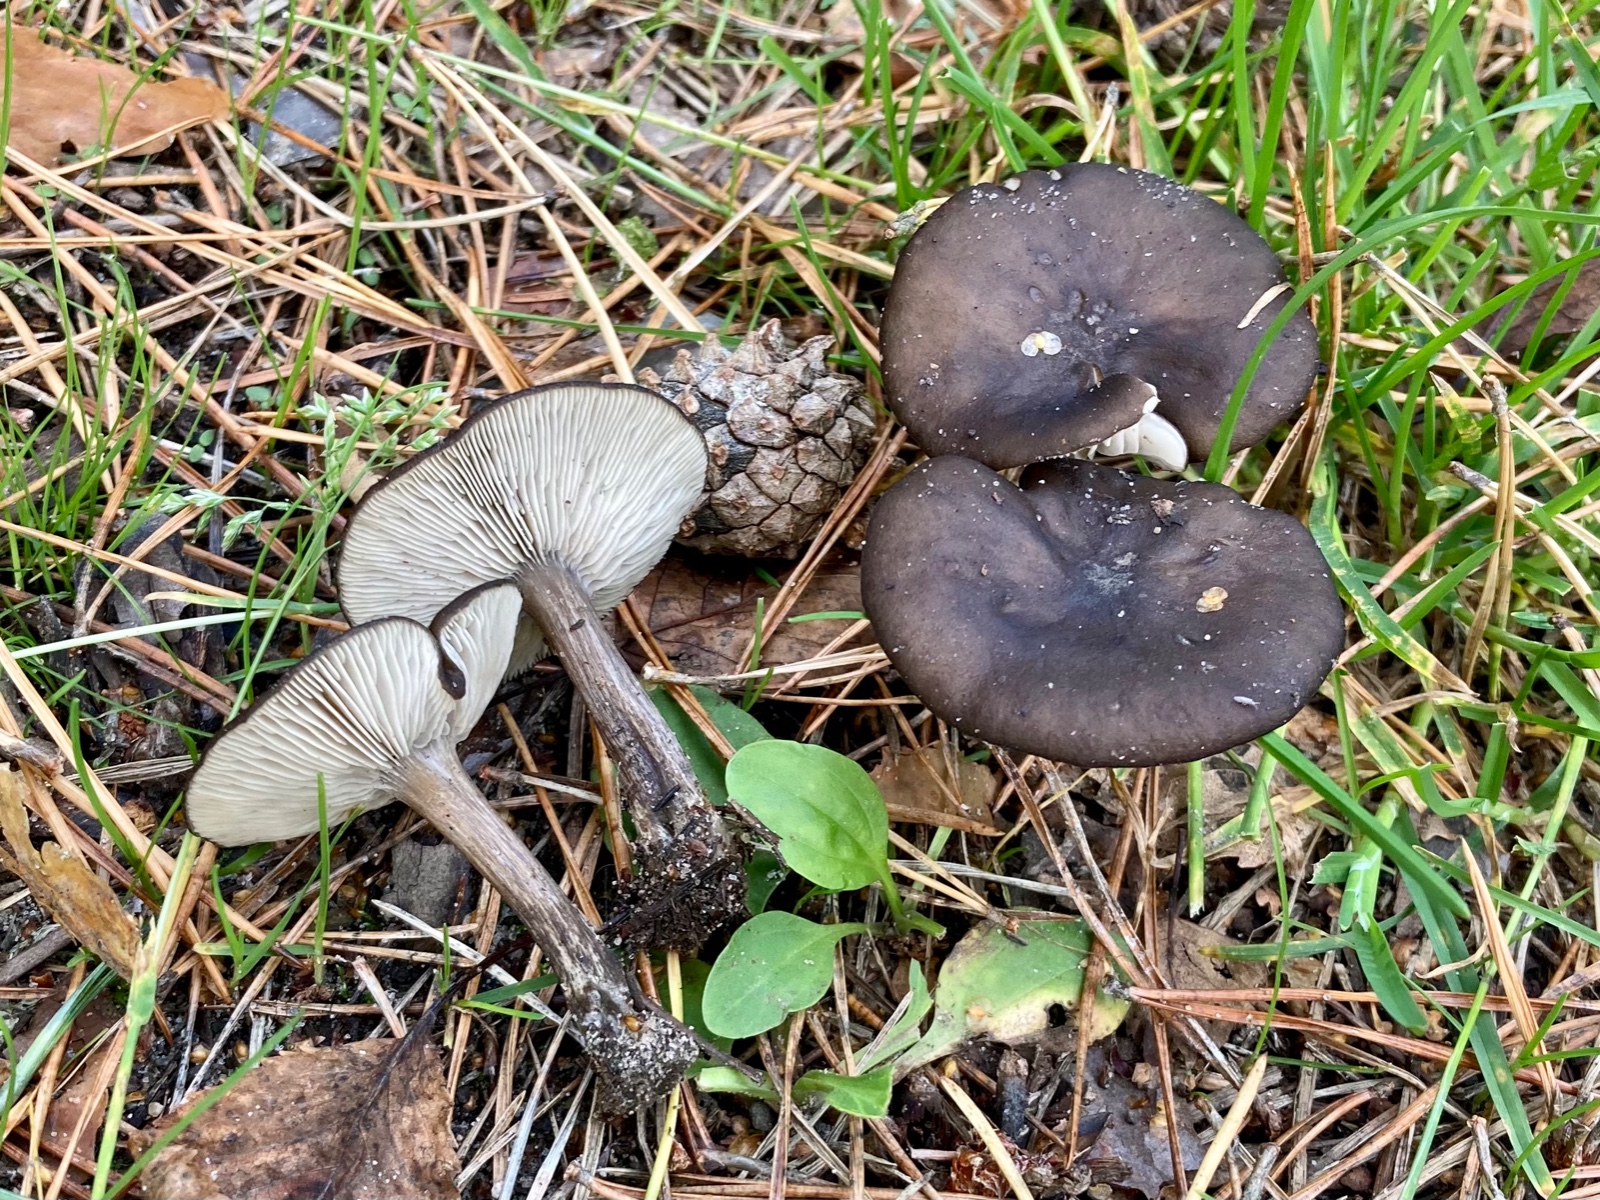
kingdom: Fungi
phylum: Basidiomycota
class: Agaricomycetes
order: Agaricales
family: Tricholomataceae
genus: Melanoleuca
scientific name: Melanoleuca
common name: munkehat
